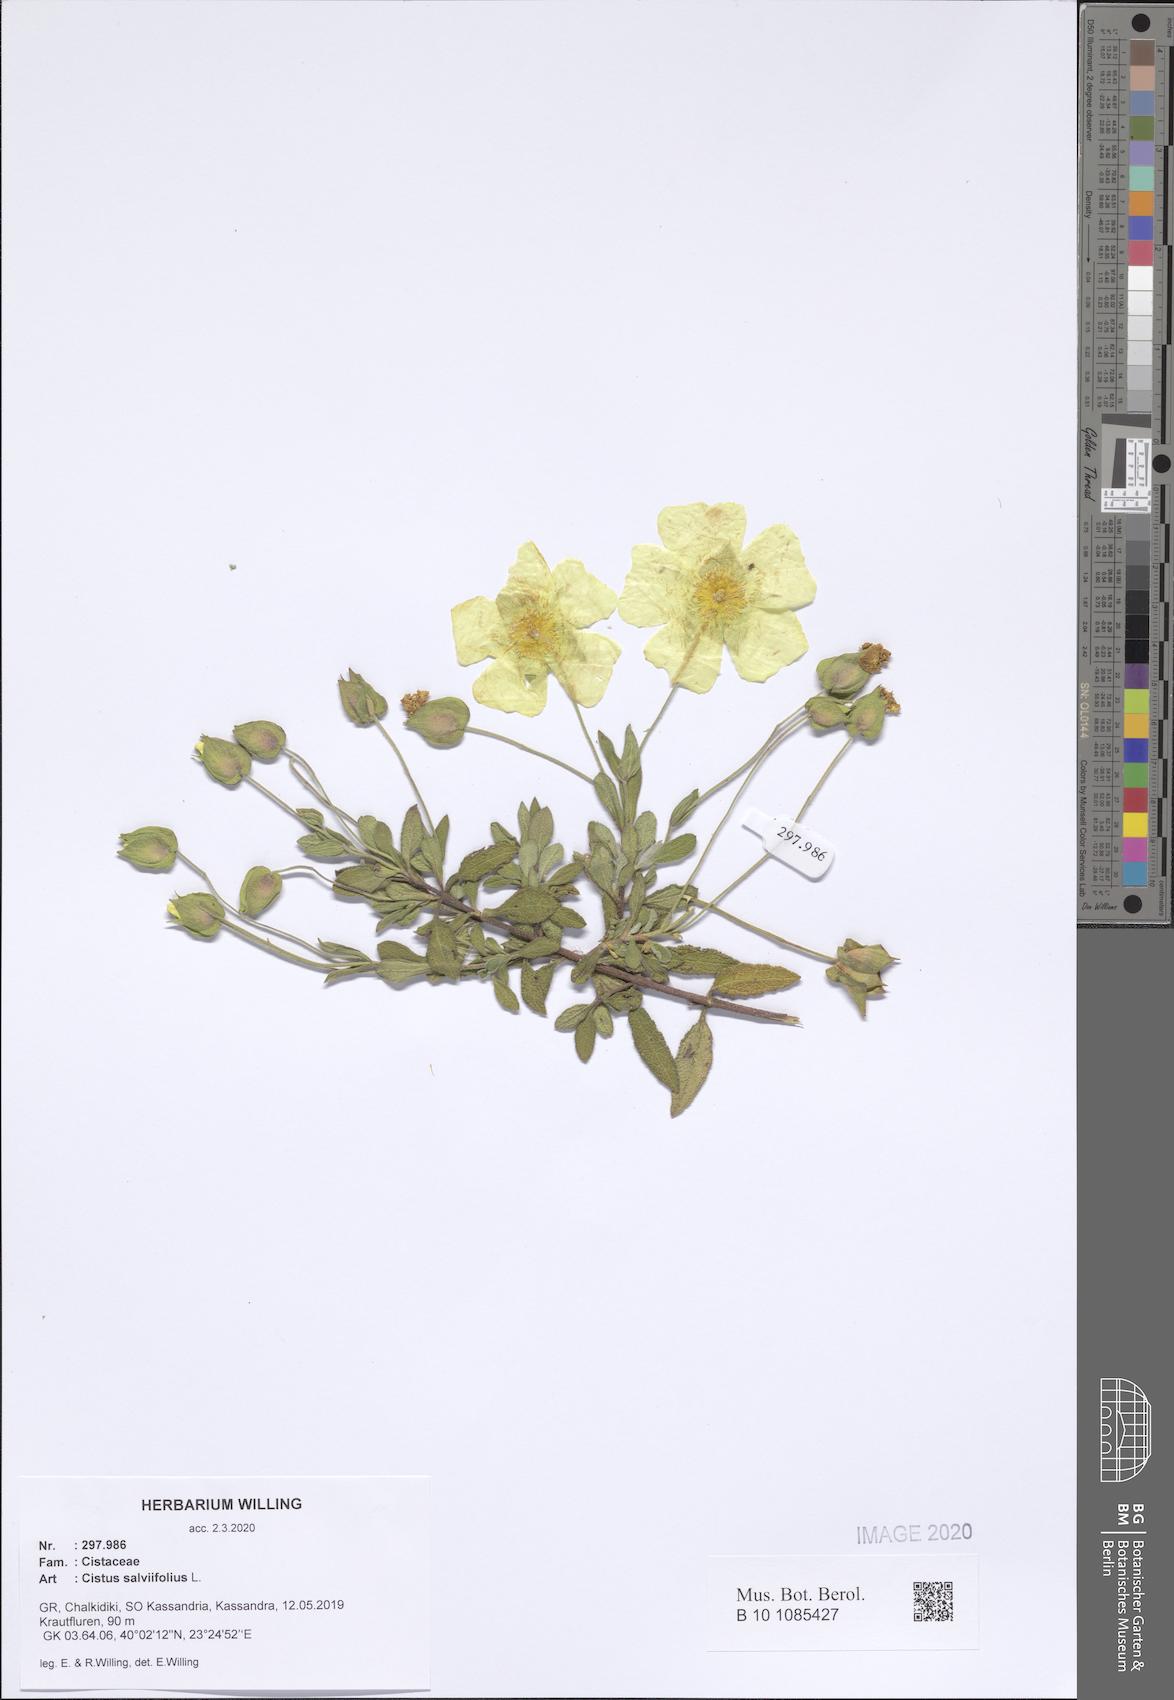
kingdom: Plantae
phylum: Tracheophyta
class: Magnoliopsida
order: Malvales
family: Cistaceae
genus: Cistus
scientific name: Cistus salviifolius
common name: Salvia cistus
